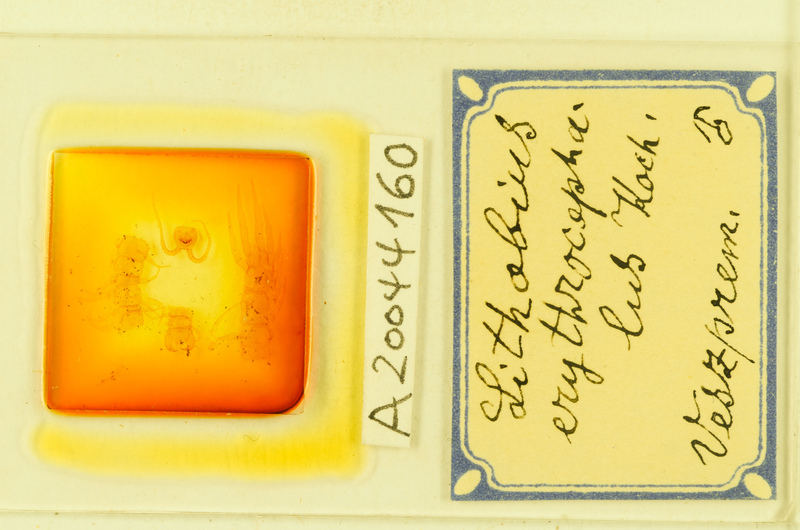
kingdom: Animalia
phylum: Arthropoda
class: Chilopoda
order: Lithobiomorpha
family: Lithobiidae
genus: Lithobius
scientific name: Lithobius erythrocephalus
